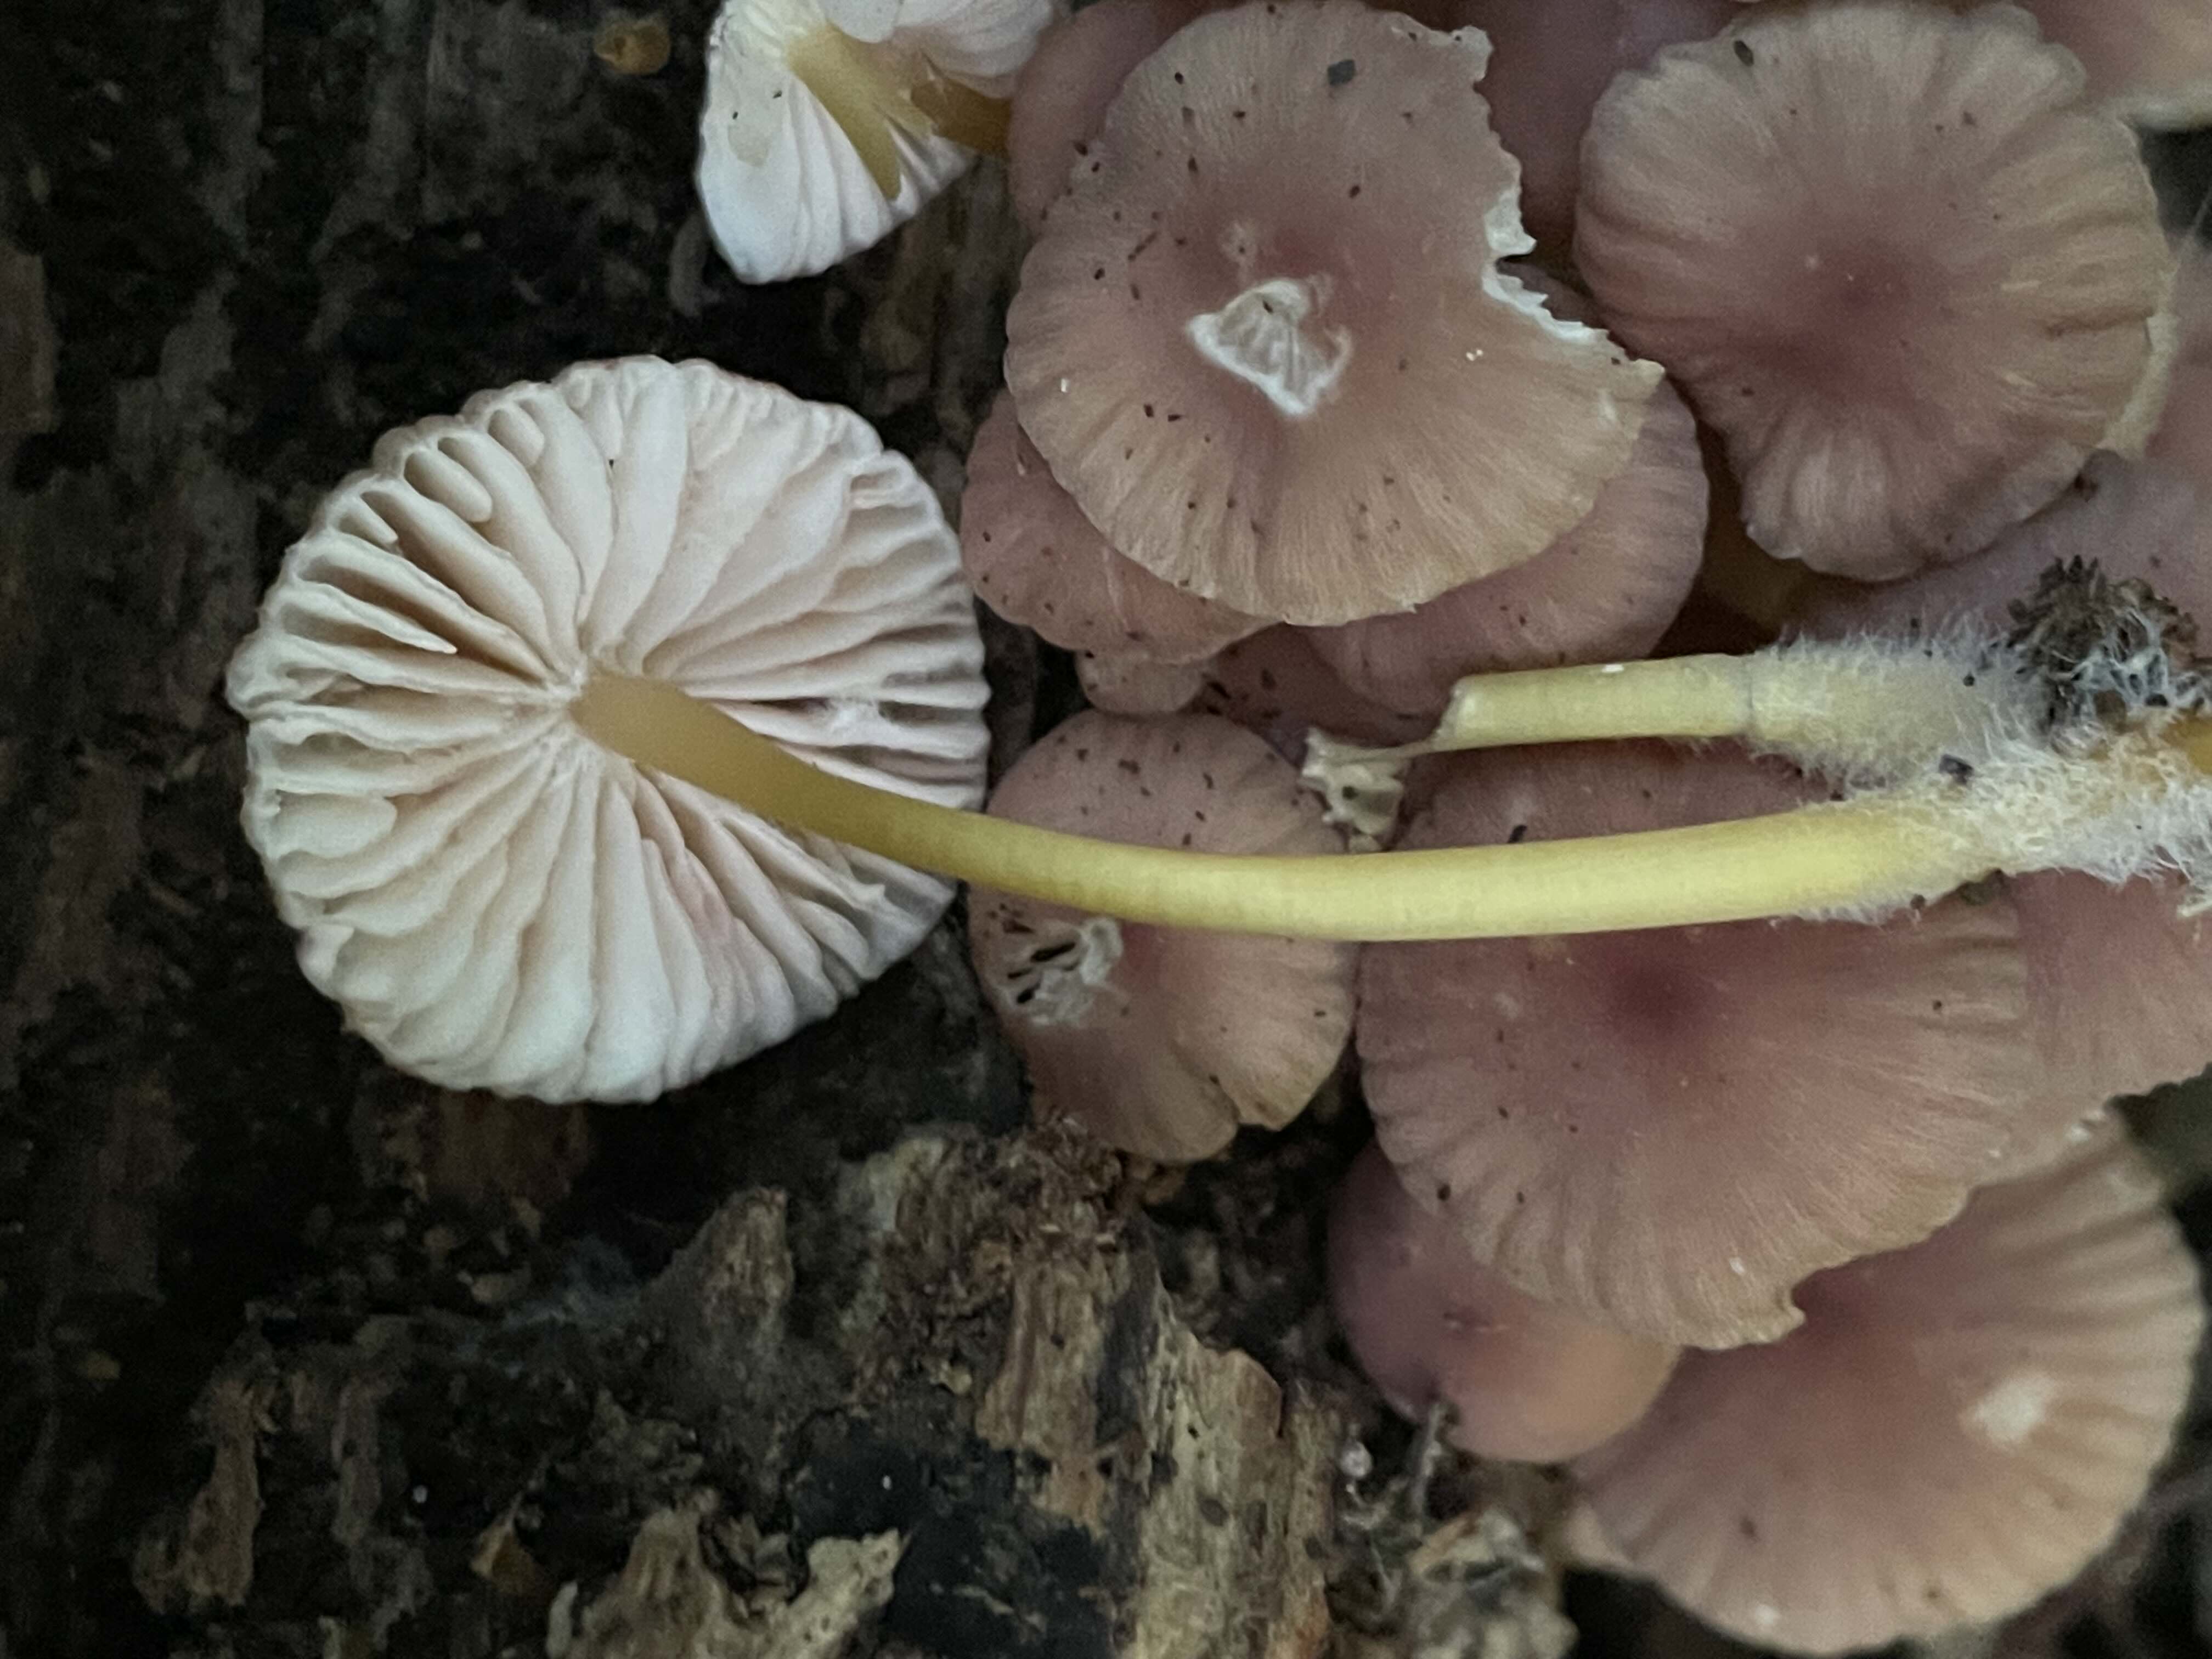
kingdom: Fungi
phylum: Basidiomycota
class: Agaricomycetes
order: Agaricales
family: Mycenaceae
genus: Mycena
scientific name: Mycena renati
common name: smuk huesvamp
